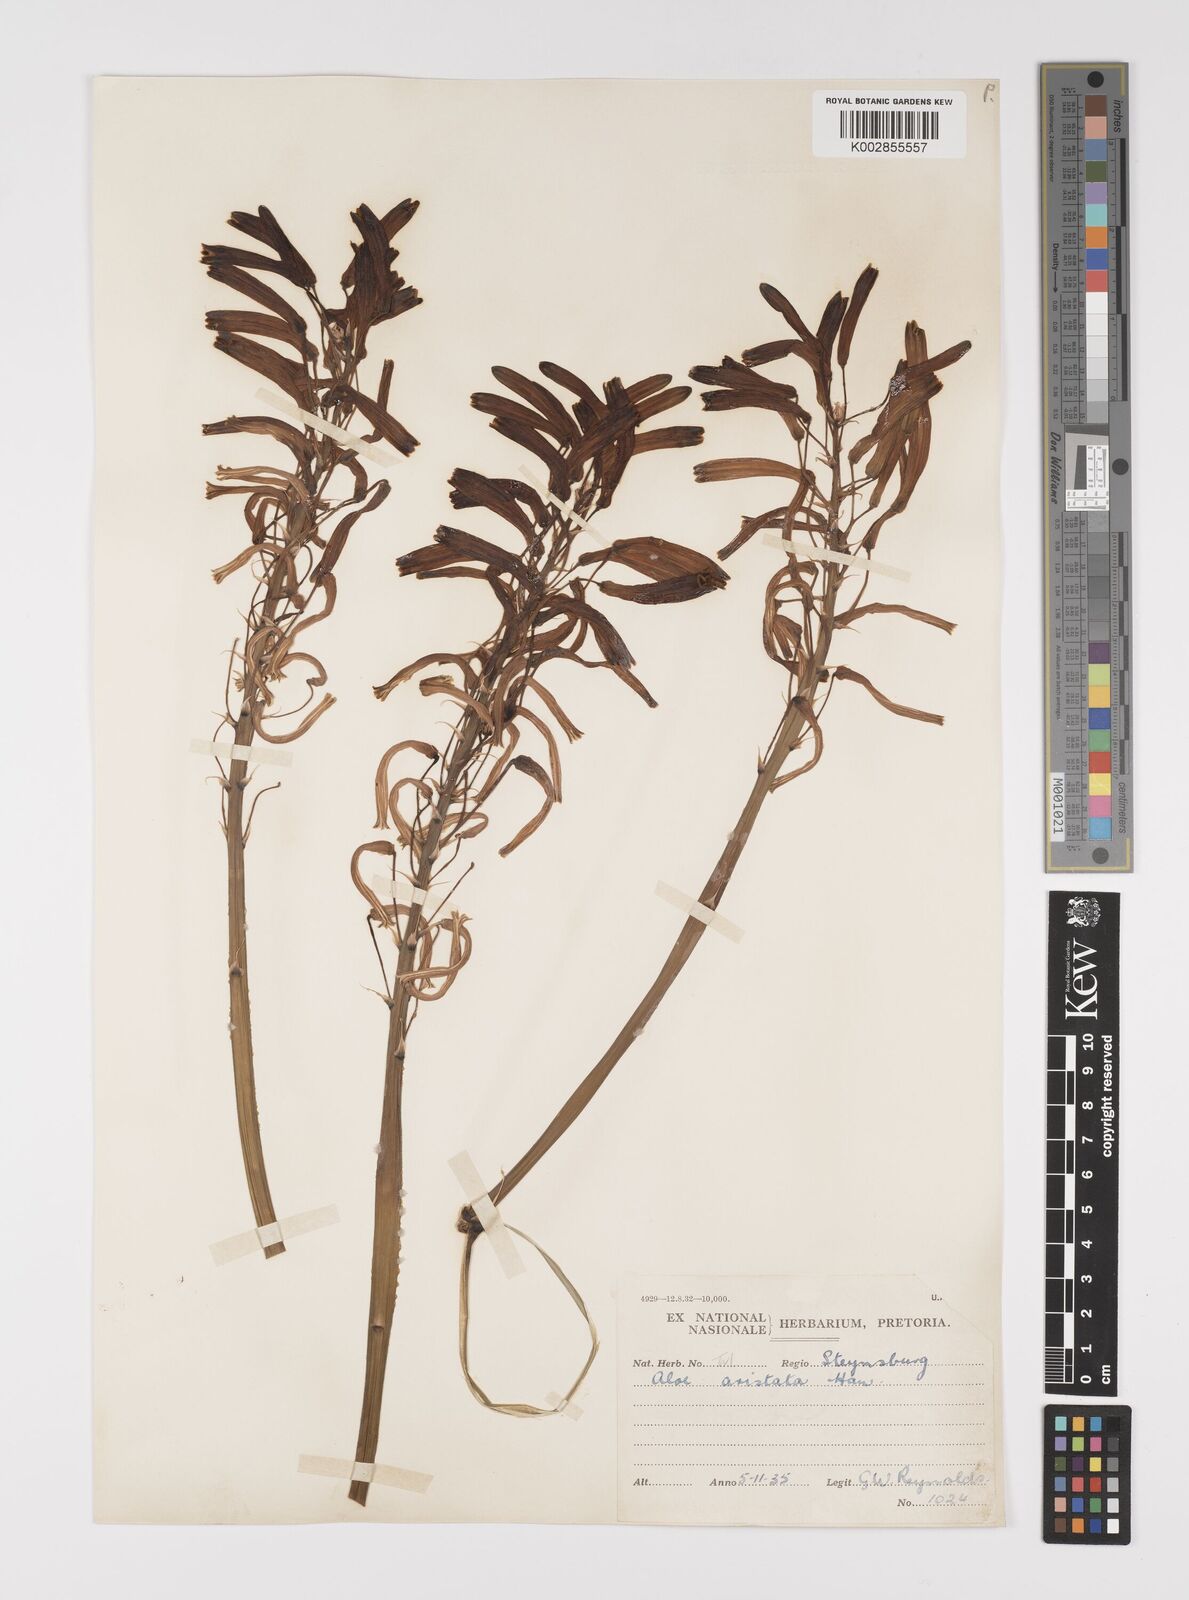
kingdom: Plantae
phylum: Tracheophyta
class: Liliopsida
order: Asparagales
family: Asphodelaceae
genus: Aristaloe
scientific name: Aristaloe aristata
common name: Guinea-fowl aloe
